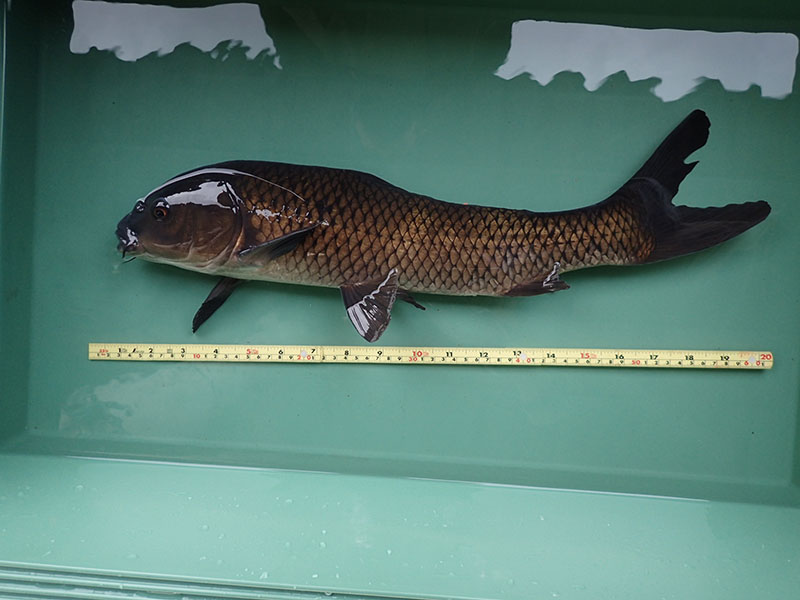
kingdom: Animalia
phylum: Chordata
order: Cypriniformes
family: Cyprinidae
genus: Cyprinus
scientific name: Cyprinus carpio
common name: コイ
